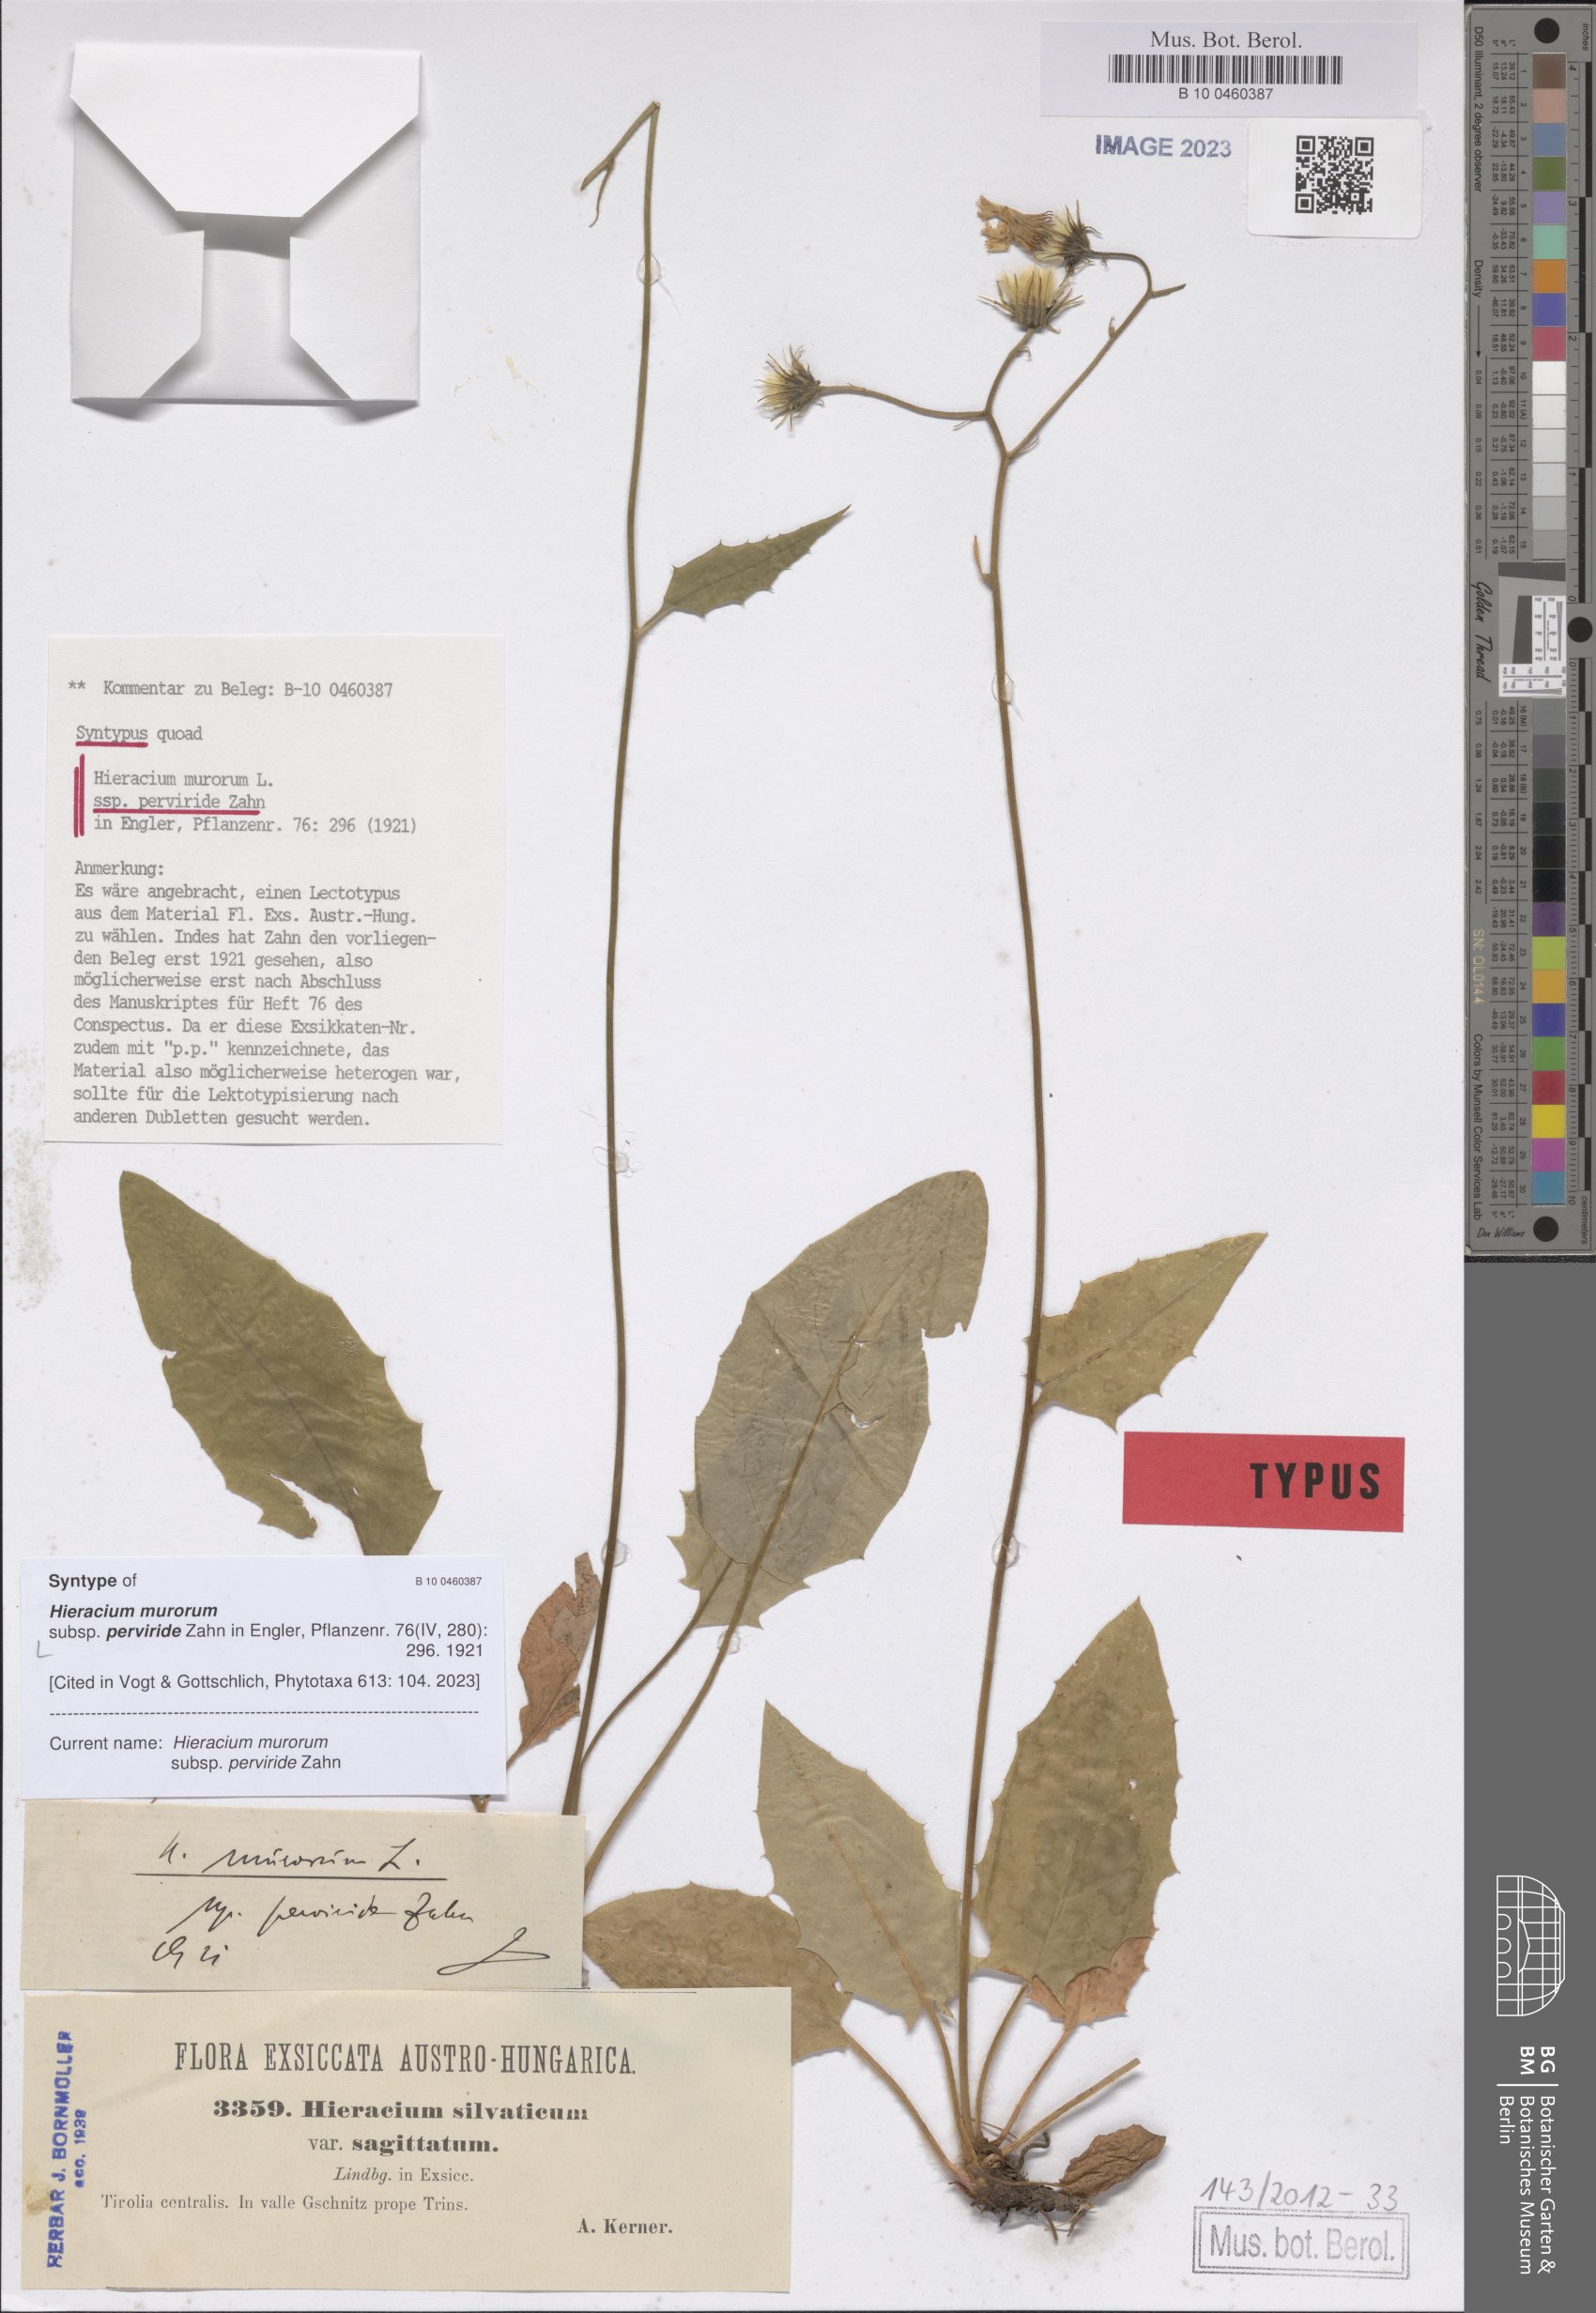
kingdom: Plantae
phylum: Tracheophyta
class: Magnoliopsida
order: Asterales
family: Asteraceae
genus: Hieracium
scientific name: Hieracium murorum
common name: Wall hawkweed
